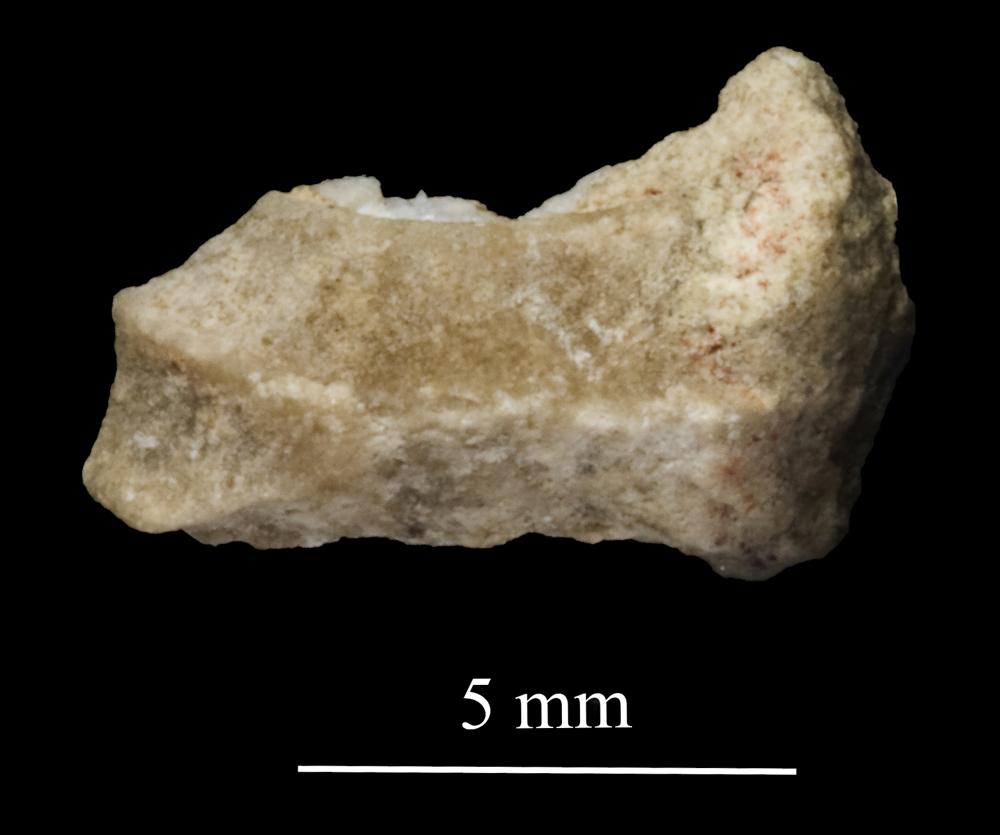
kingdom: Animalia
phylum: Mollusca
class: Gastropoda
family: Trochonematidae
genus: Trochonema
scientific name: Trochonema panderi
